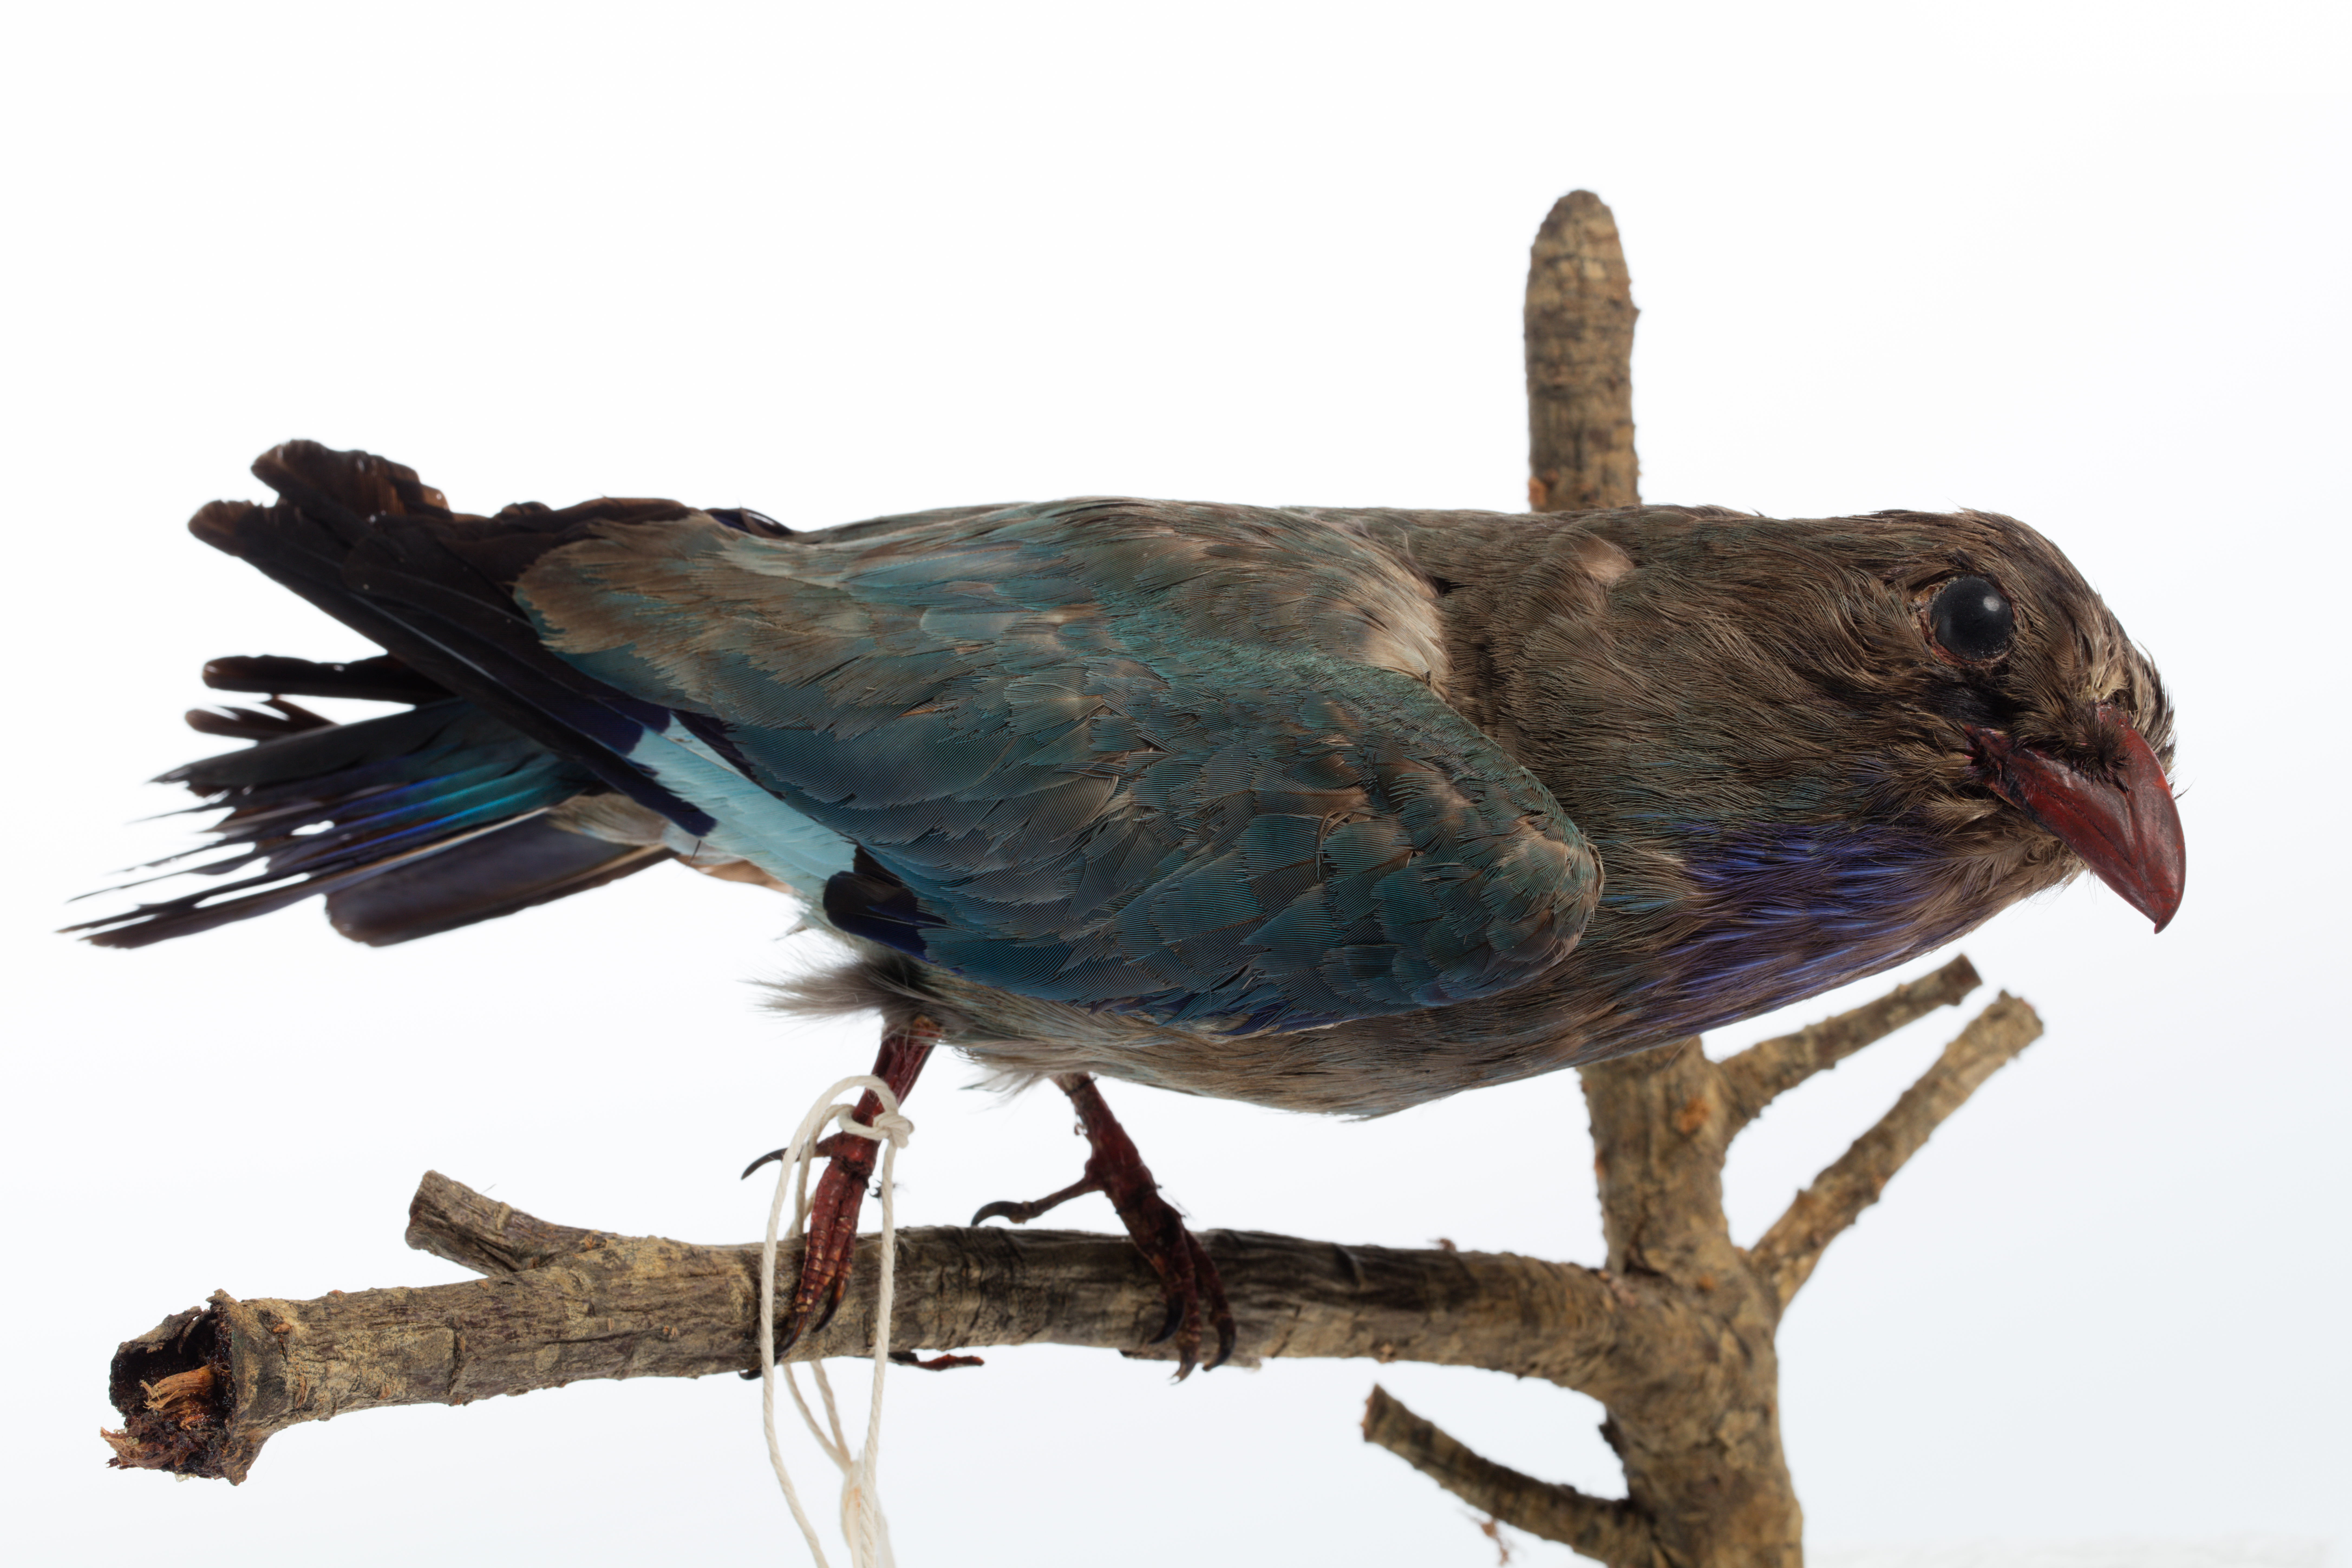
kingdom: Animalia
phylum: Chordata
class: Aves
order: Coraciiformes
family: Coraciidae
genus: Eurystomus
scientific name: Eurystomus orientalis
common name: Oriental dollarbird
